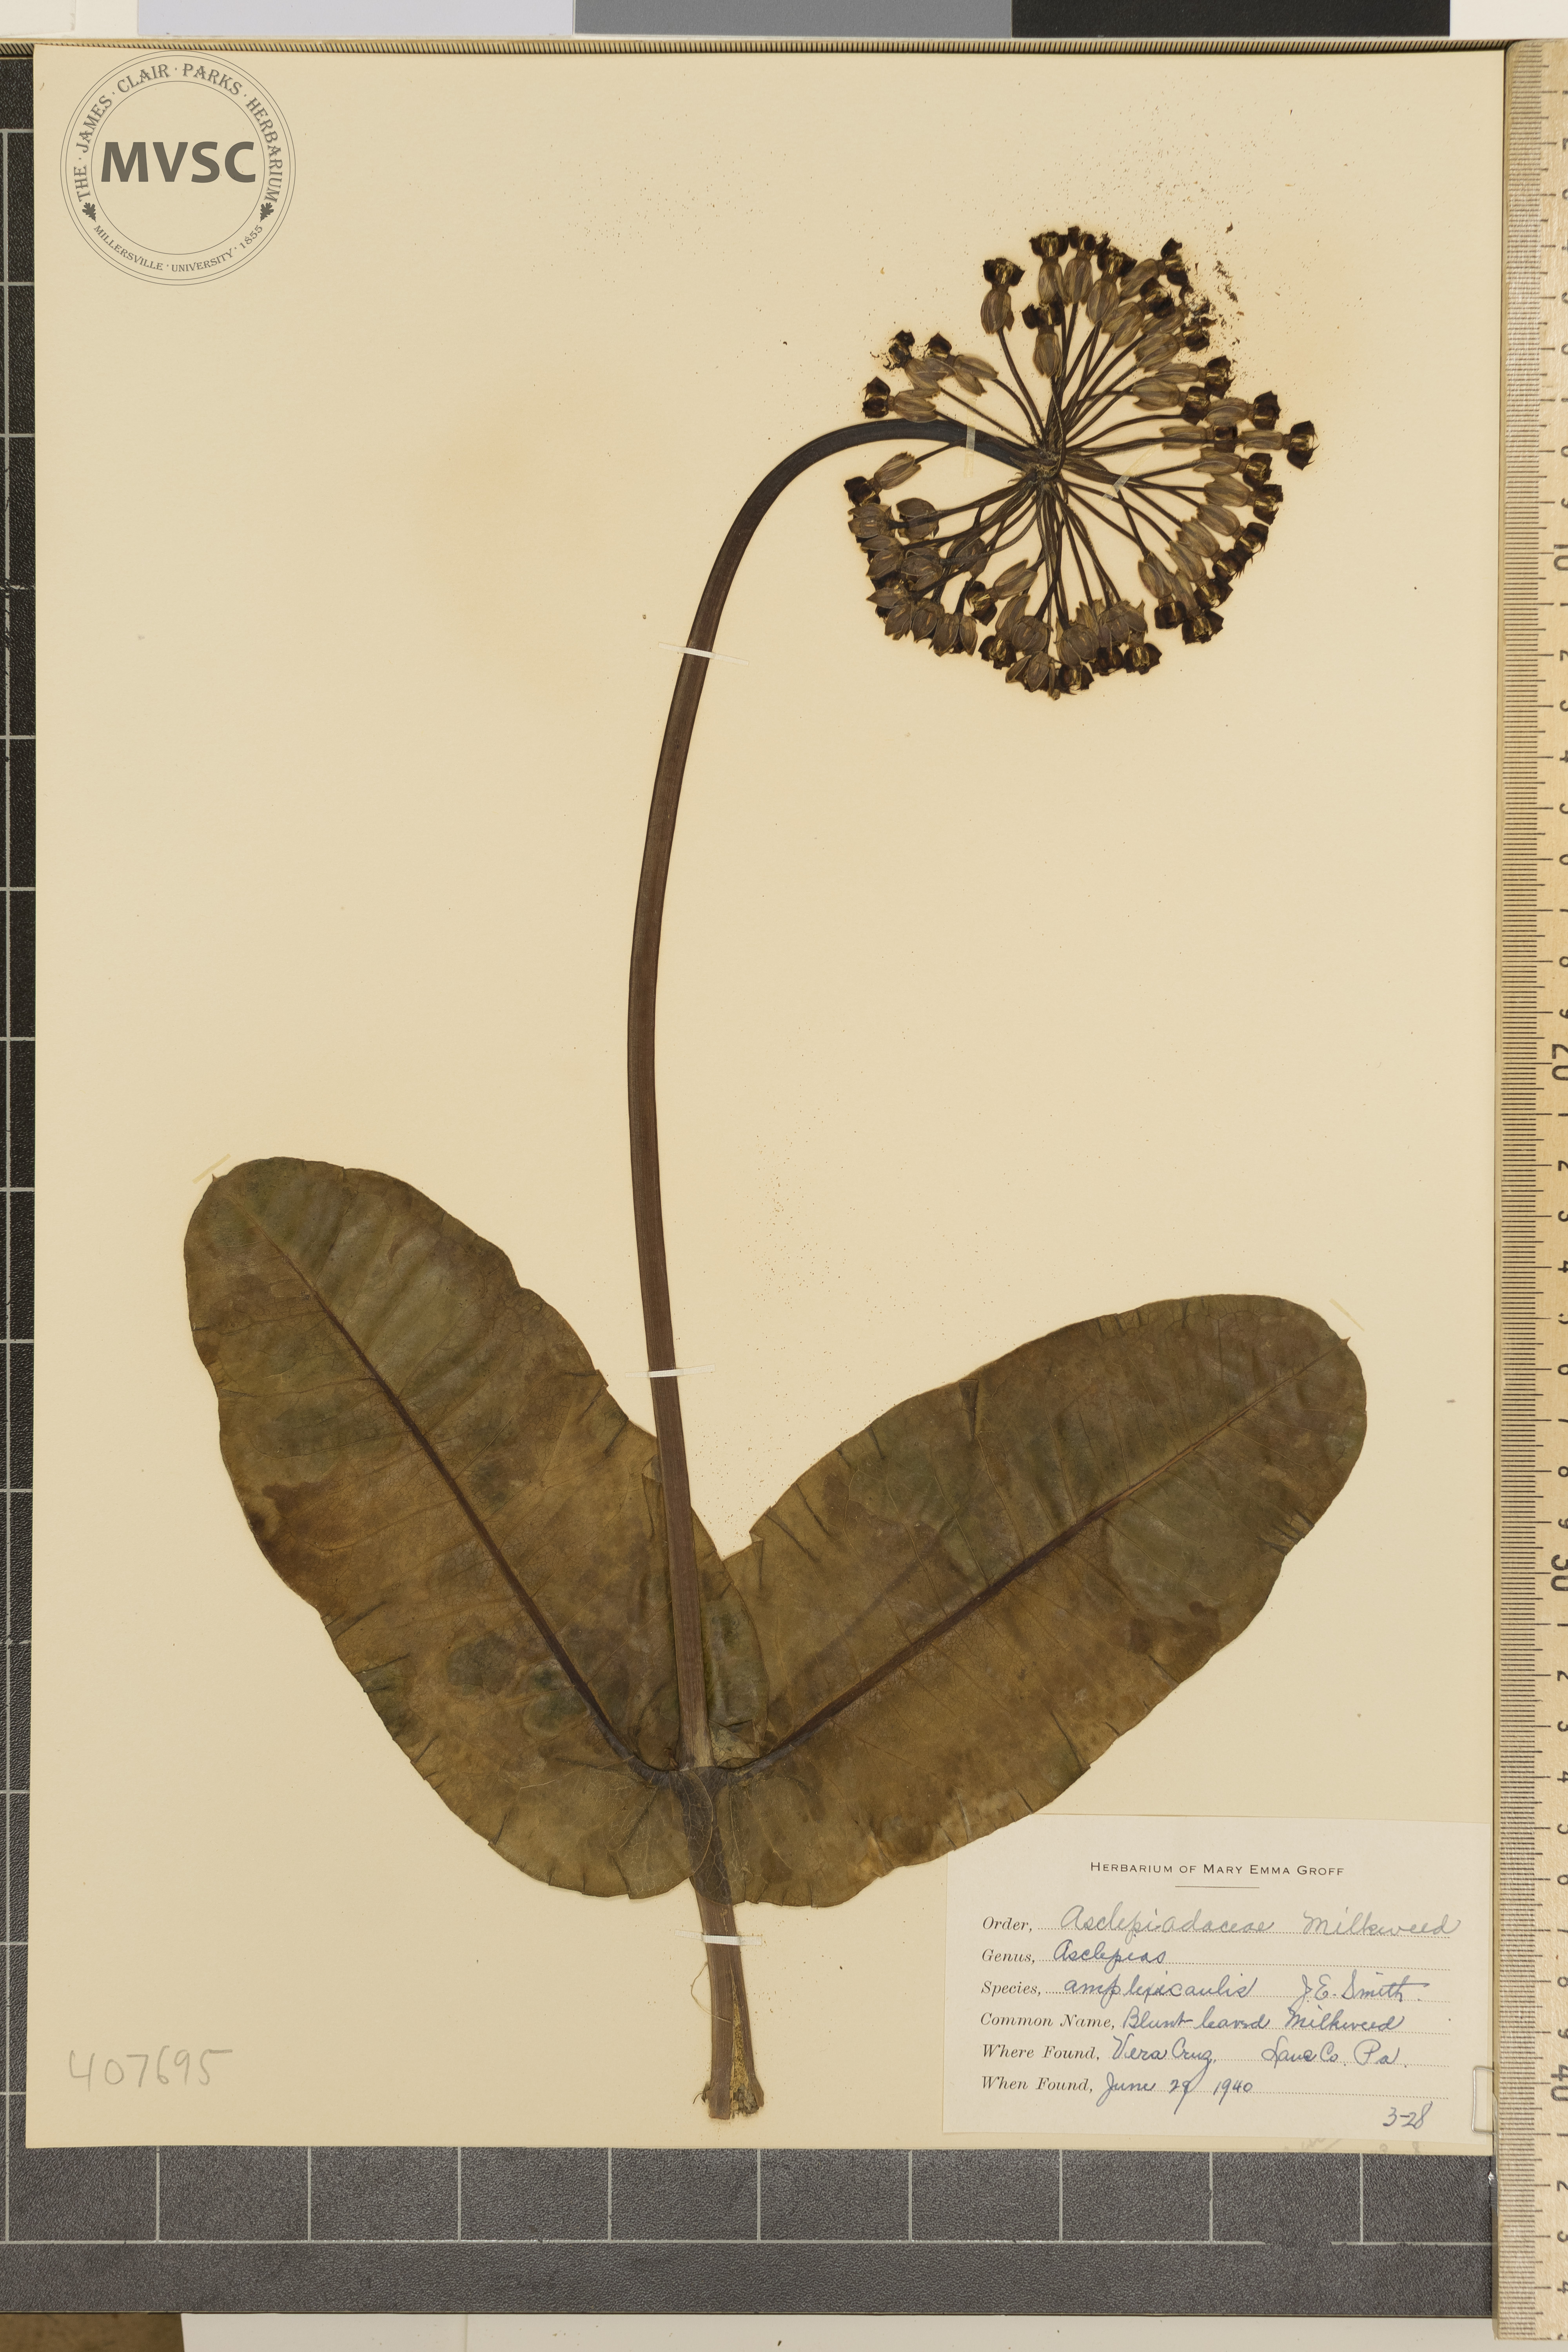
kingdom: Plantae
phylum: Tracheophyta
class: Magnoliopsida
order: Gentianales
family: Apocynaceae
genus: Asclepias
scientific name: Asclepias amplexicaulis
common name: Blunt-leaved Milkweed
